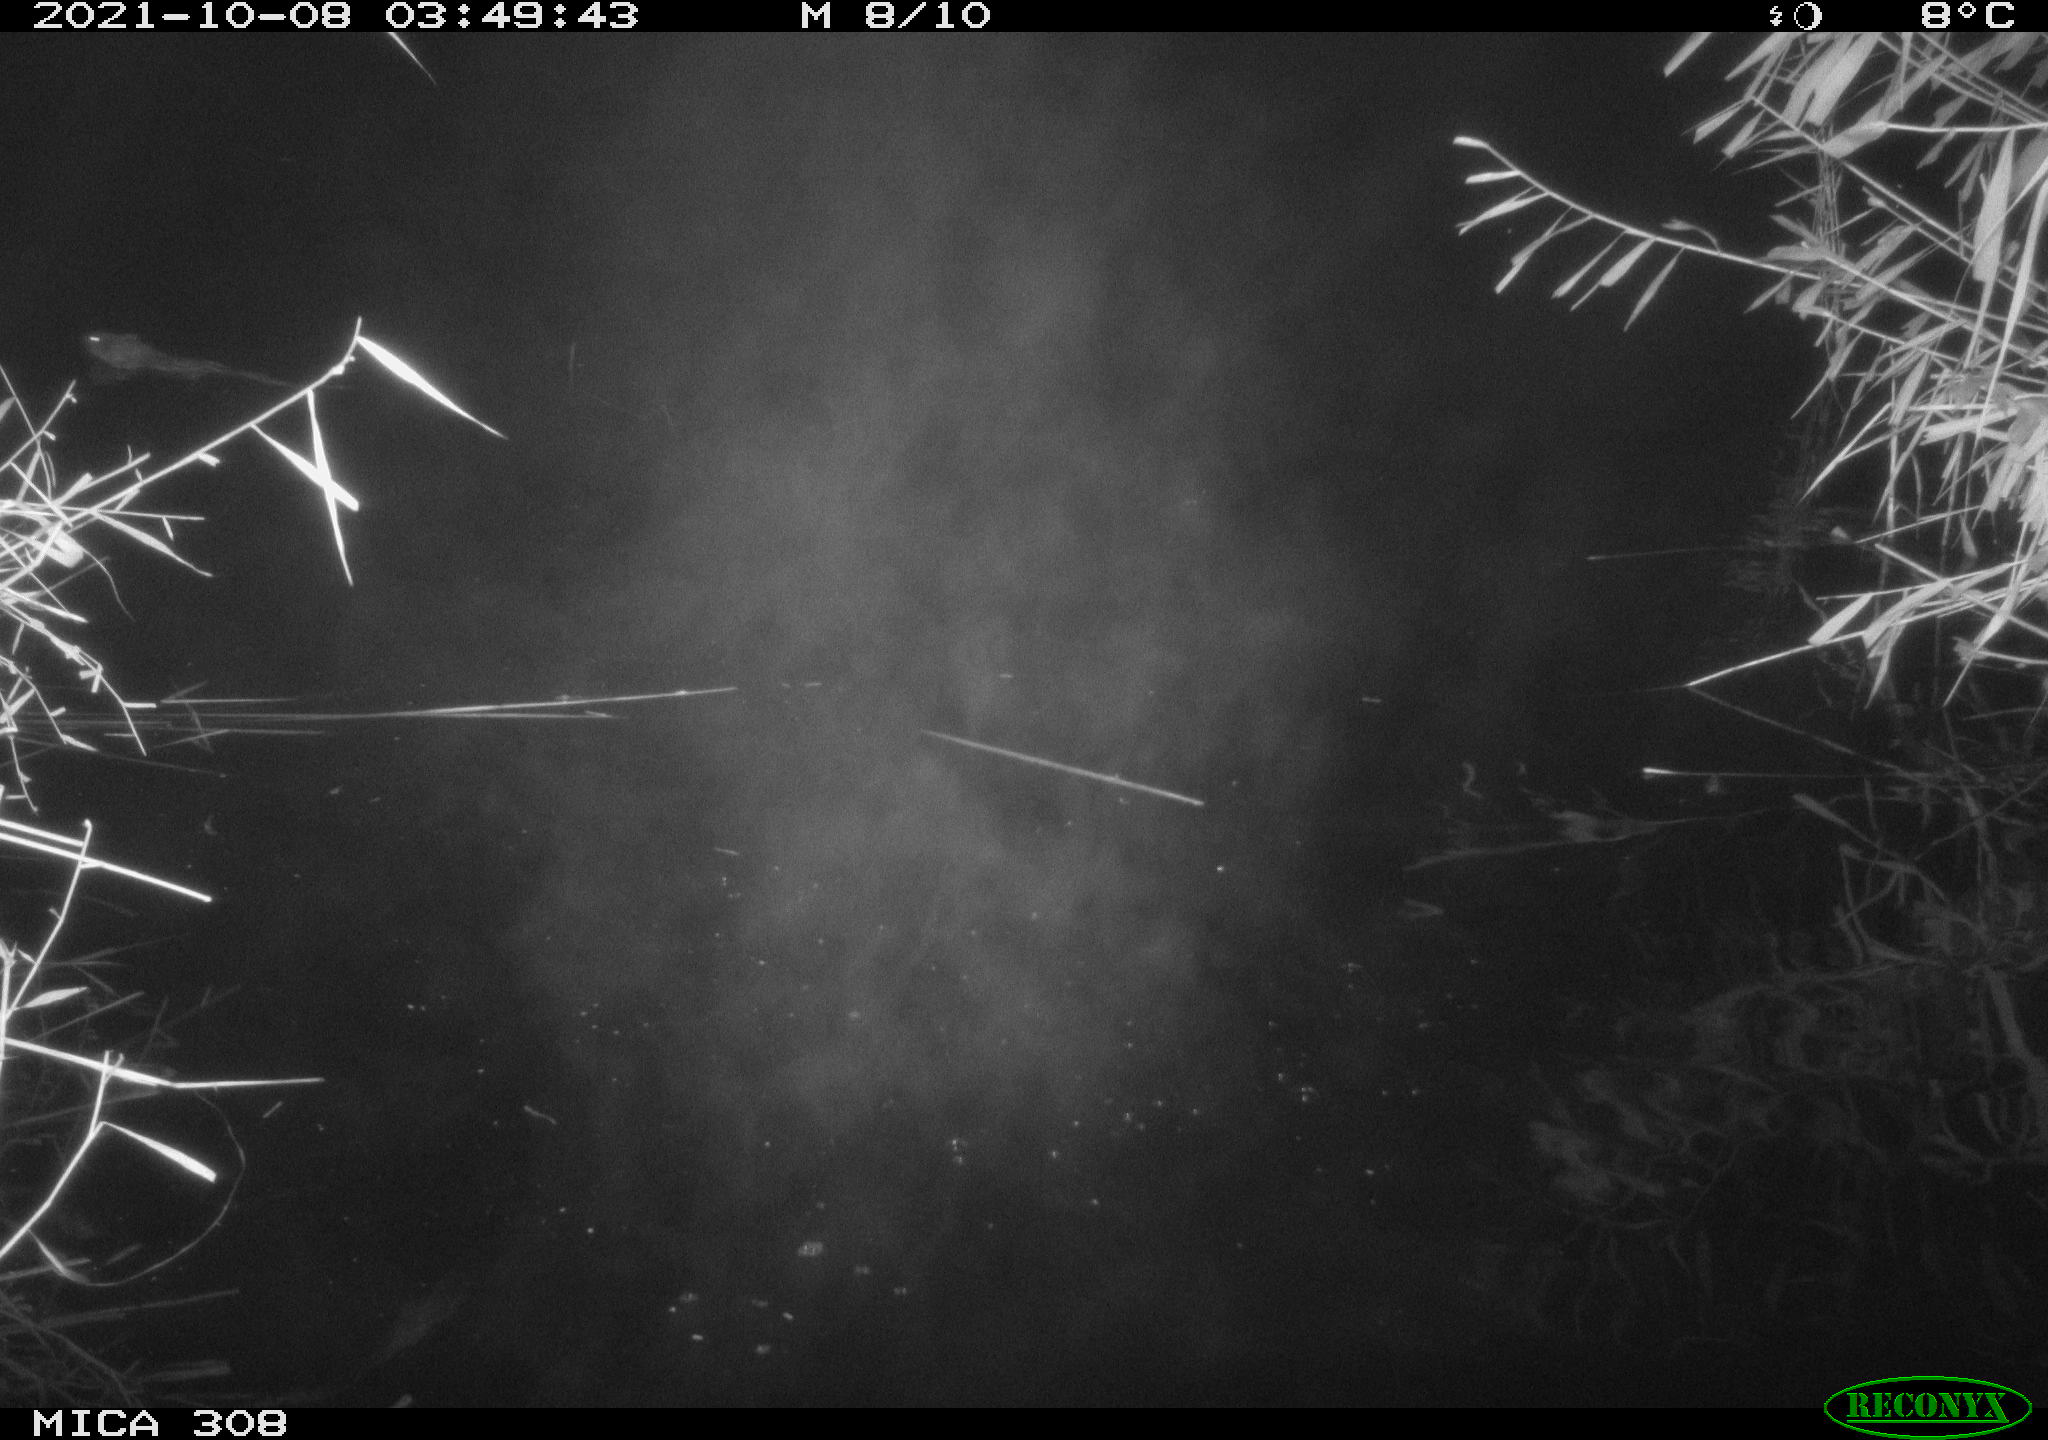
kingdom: Animalia
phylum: Chordata
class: Mammalia
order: Rodentia
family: Cricetidae
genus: Ondatra
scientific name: Ondatra zibethicus
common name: Muskrat
